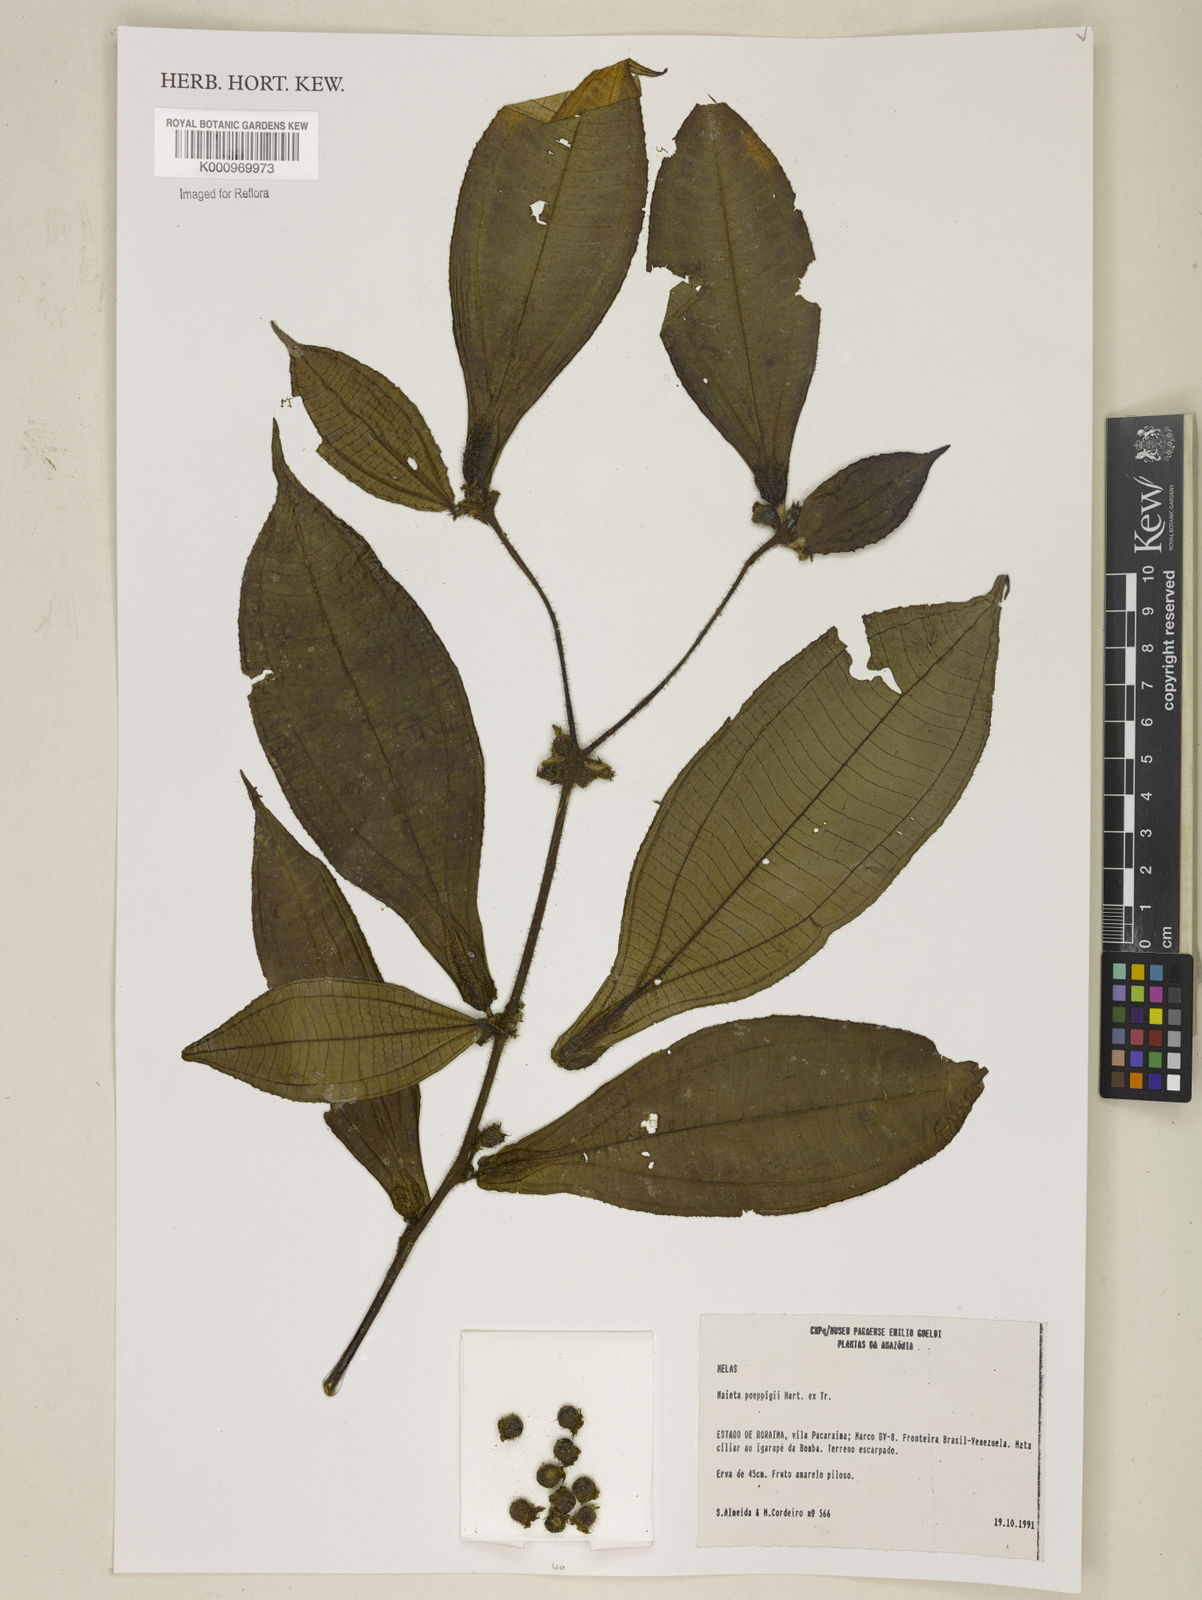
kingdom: Plantae
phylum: Tracheophyta
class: Magnoliopsida
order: Myrtales
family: Melastomataceae
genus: Miconia
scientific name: Miconia alternidomatia
